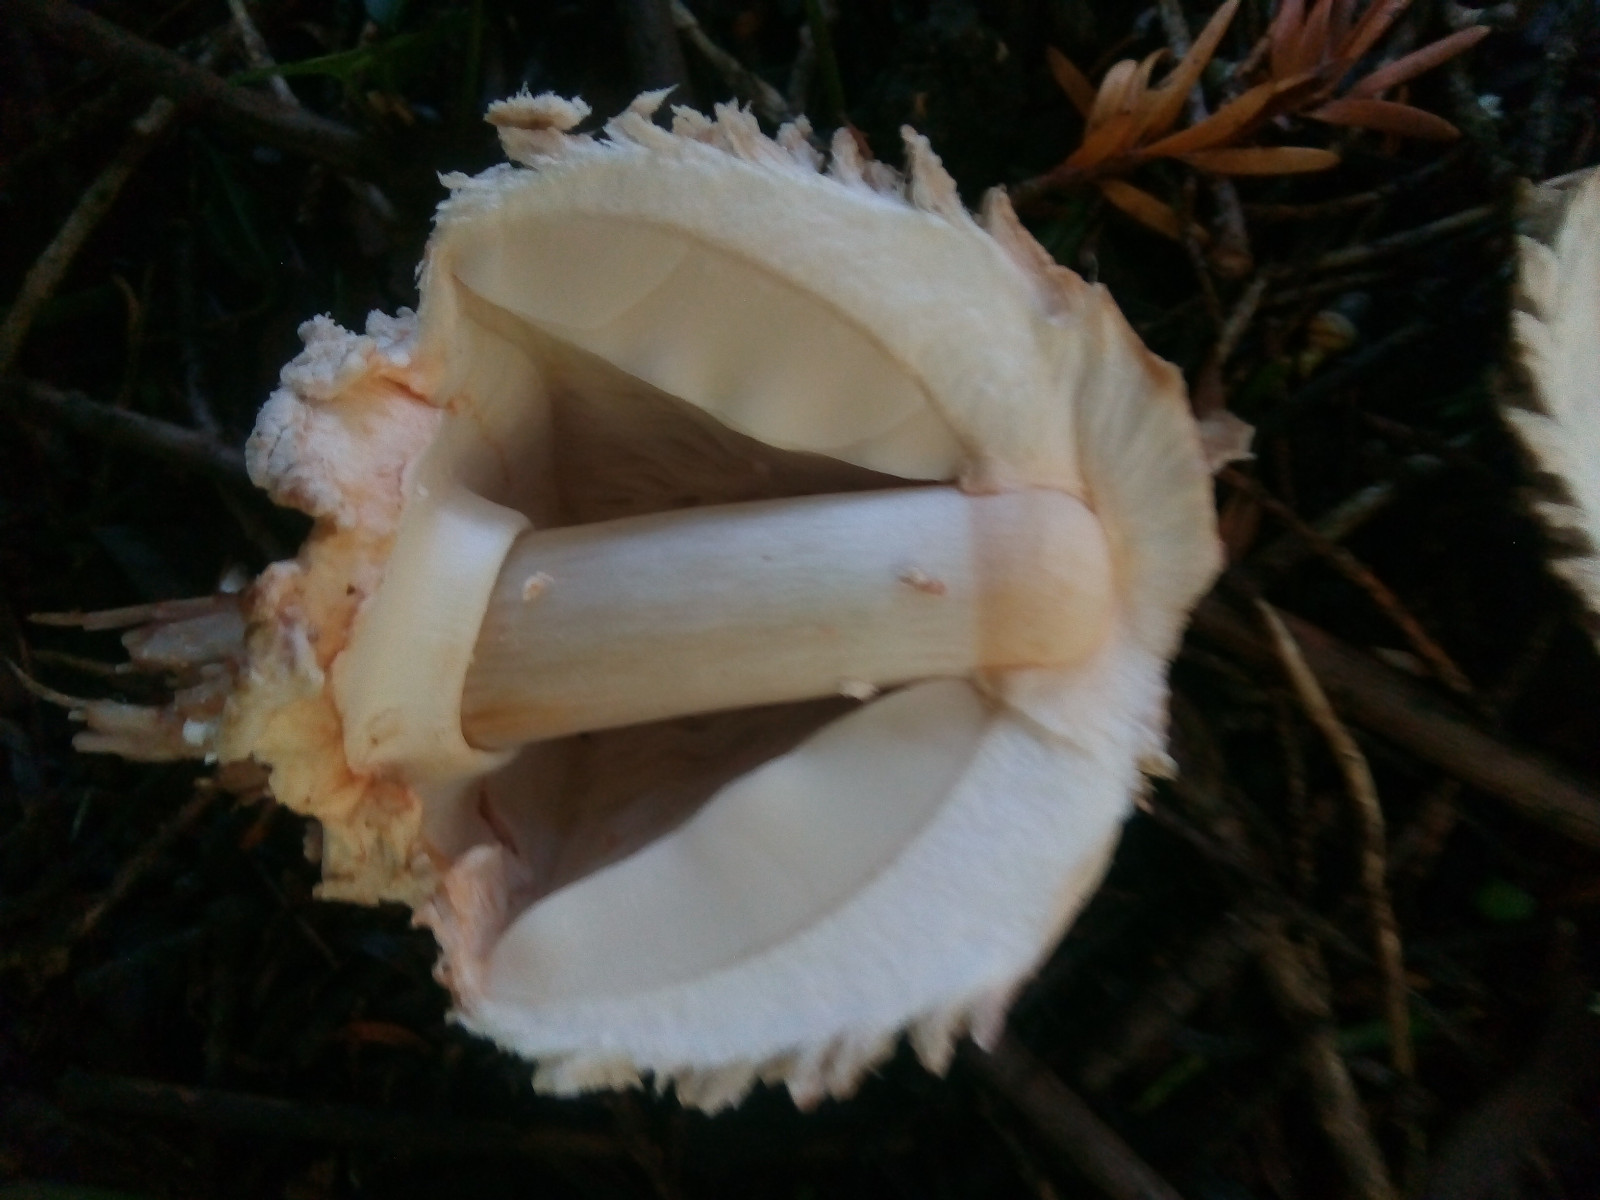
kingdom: Fungi
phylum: Basidiomycota
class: Agaricomycetes
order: Agaricales
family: Agaricaceae
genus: Chlorophyllum
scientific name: Chlorophyllum olivieri
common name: almindelig rabarberhat
